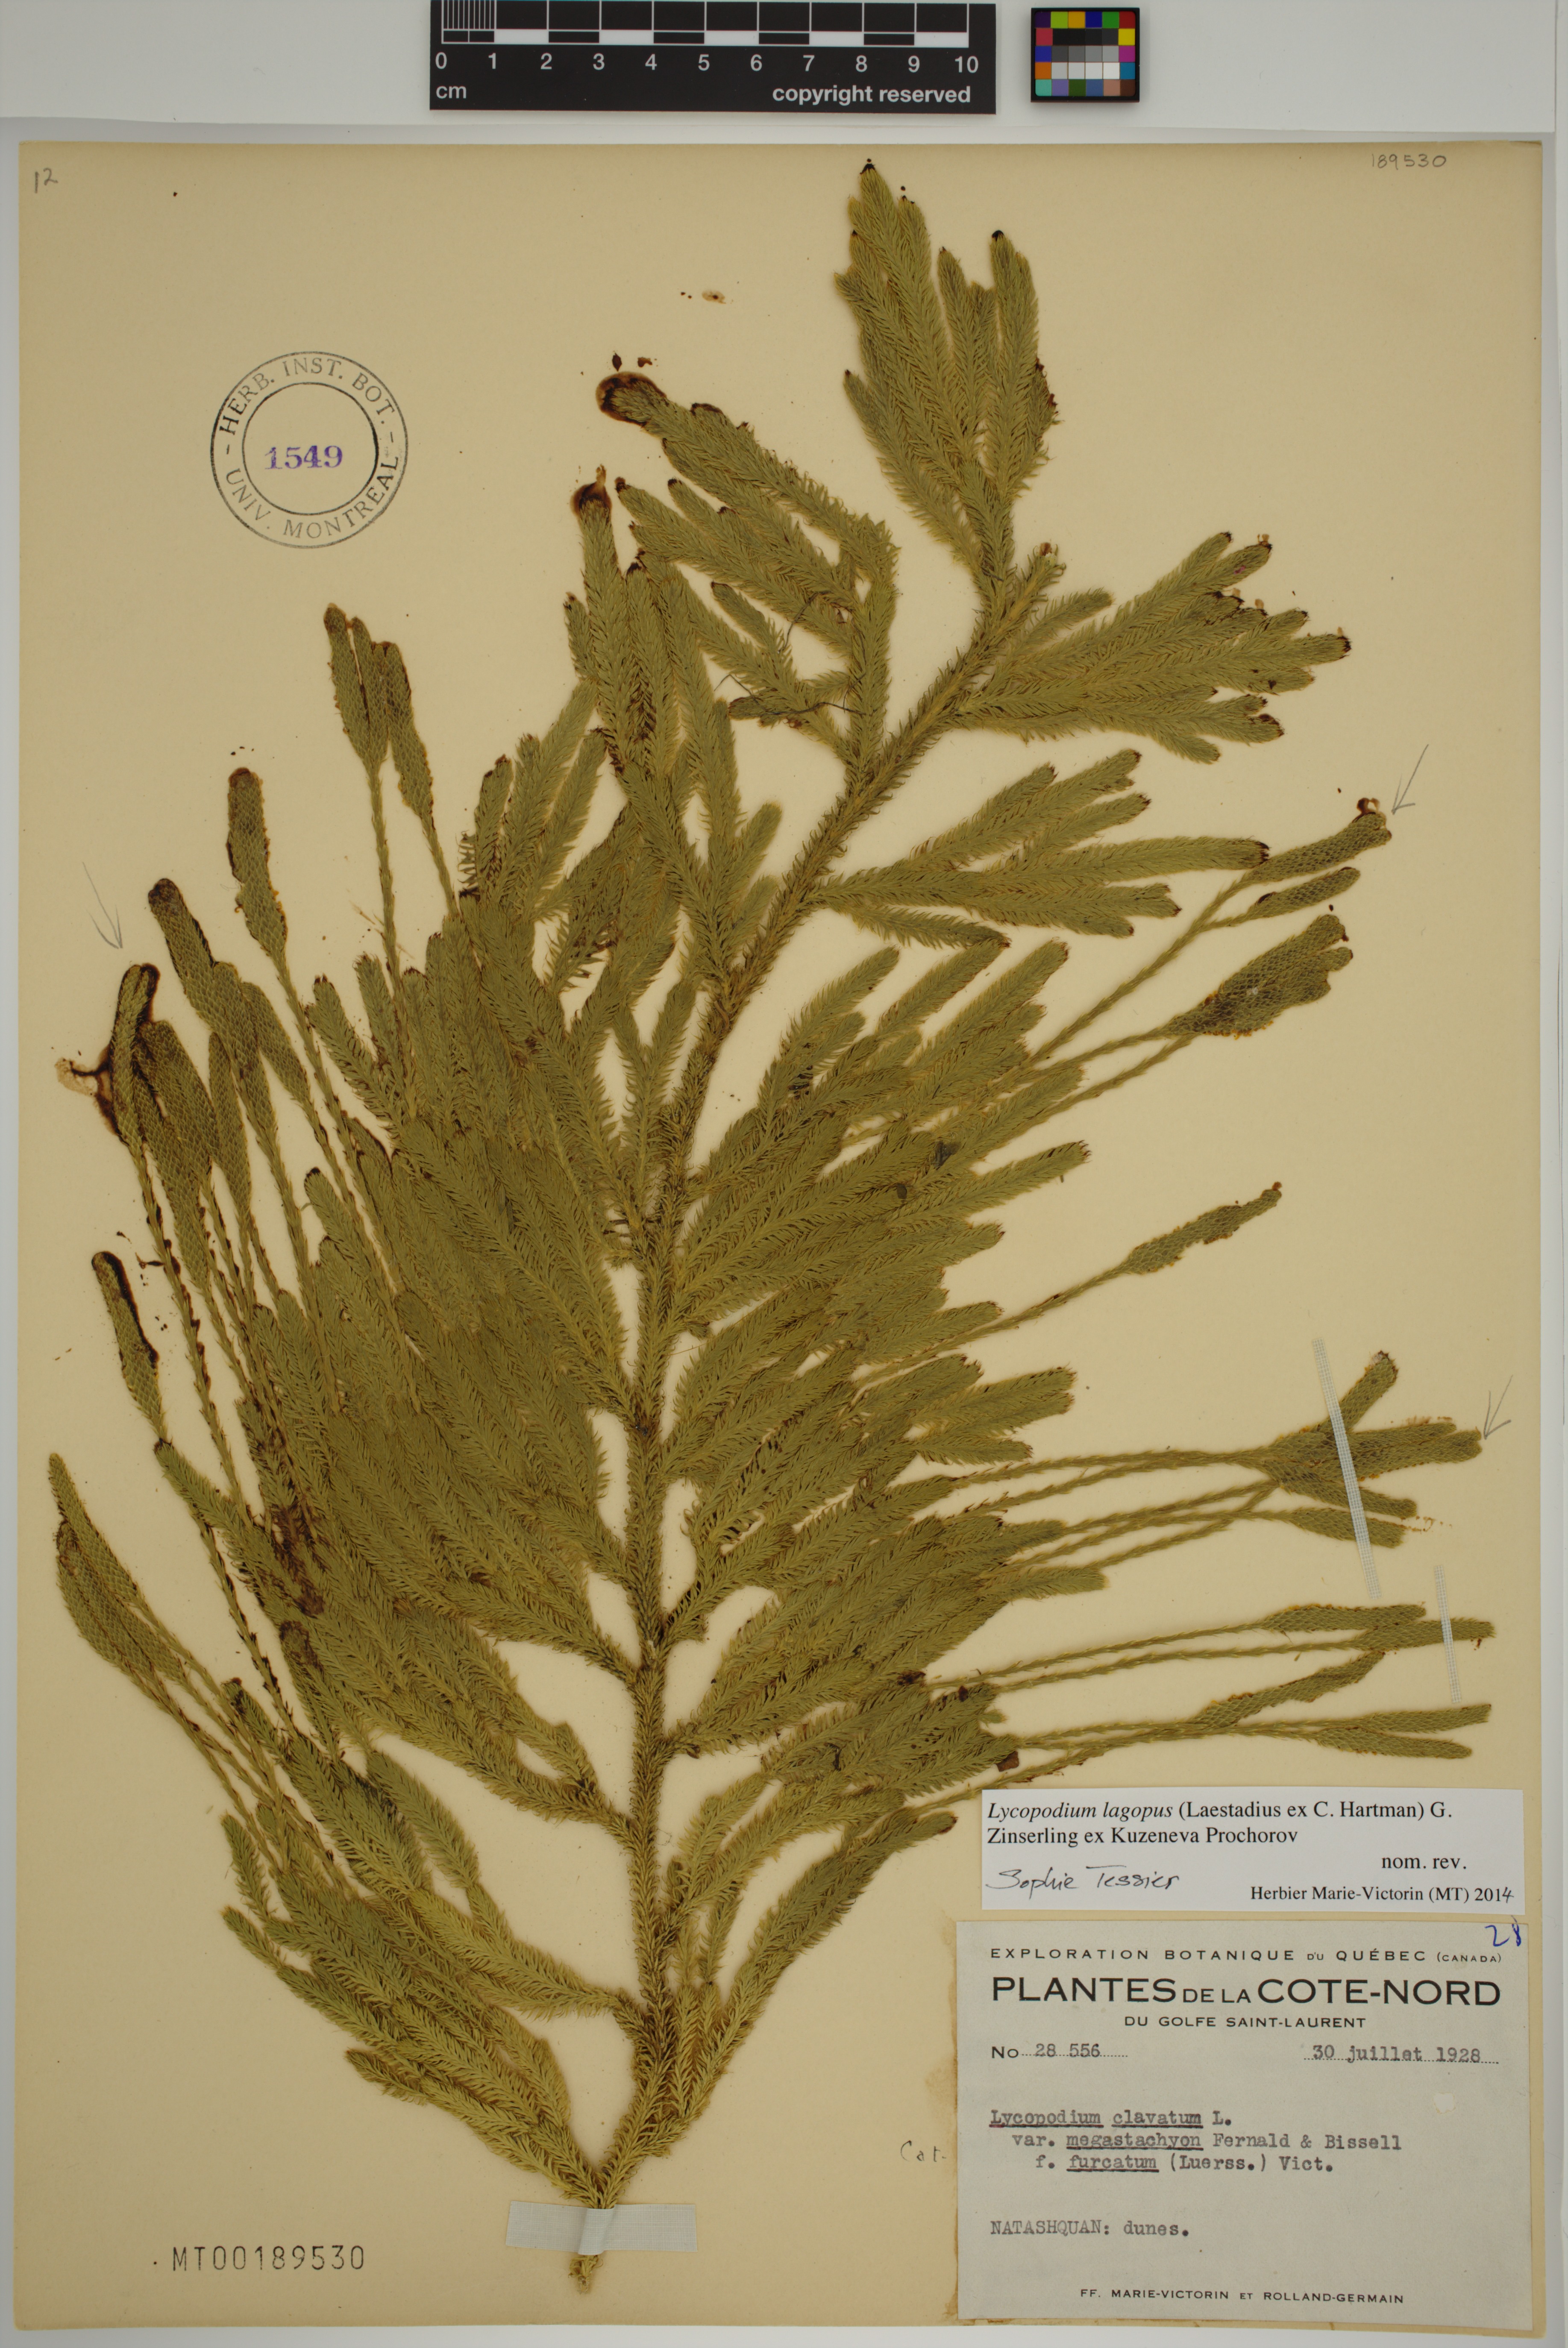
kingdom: Plantae
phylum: Tracheophyta
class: Lycopodiopsida
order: Lycopodiales
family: Lycopodiaceae
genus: Lycopodium
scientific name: Lycopodium lagopus
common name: One-cone clubmoss
